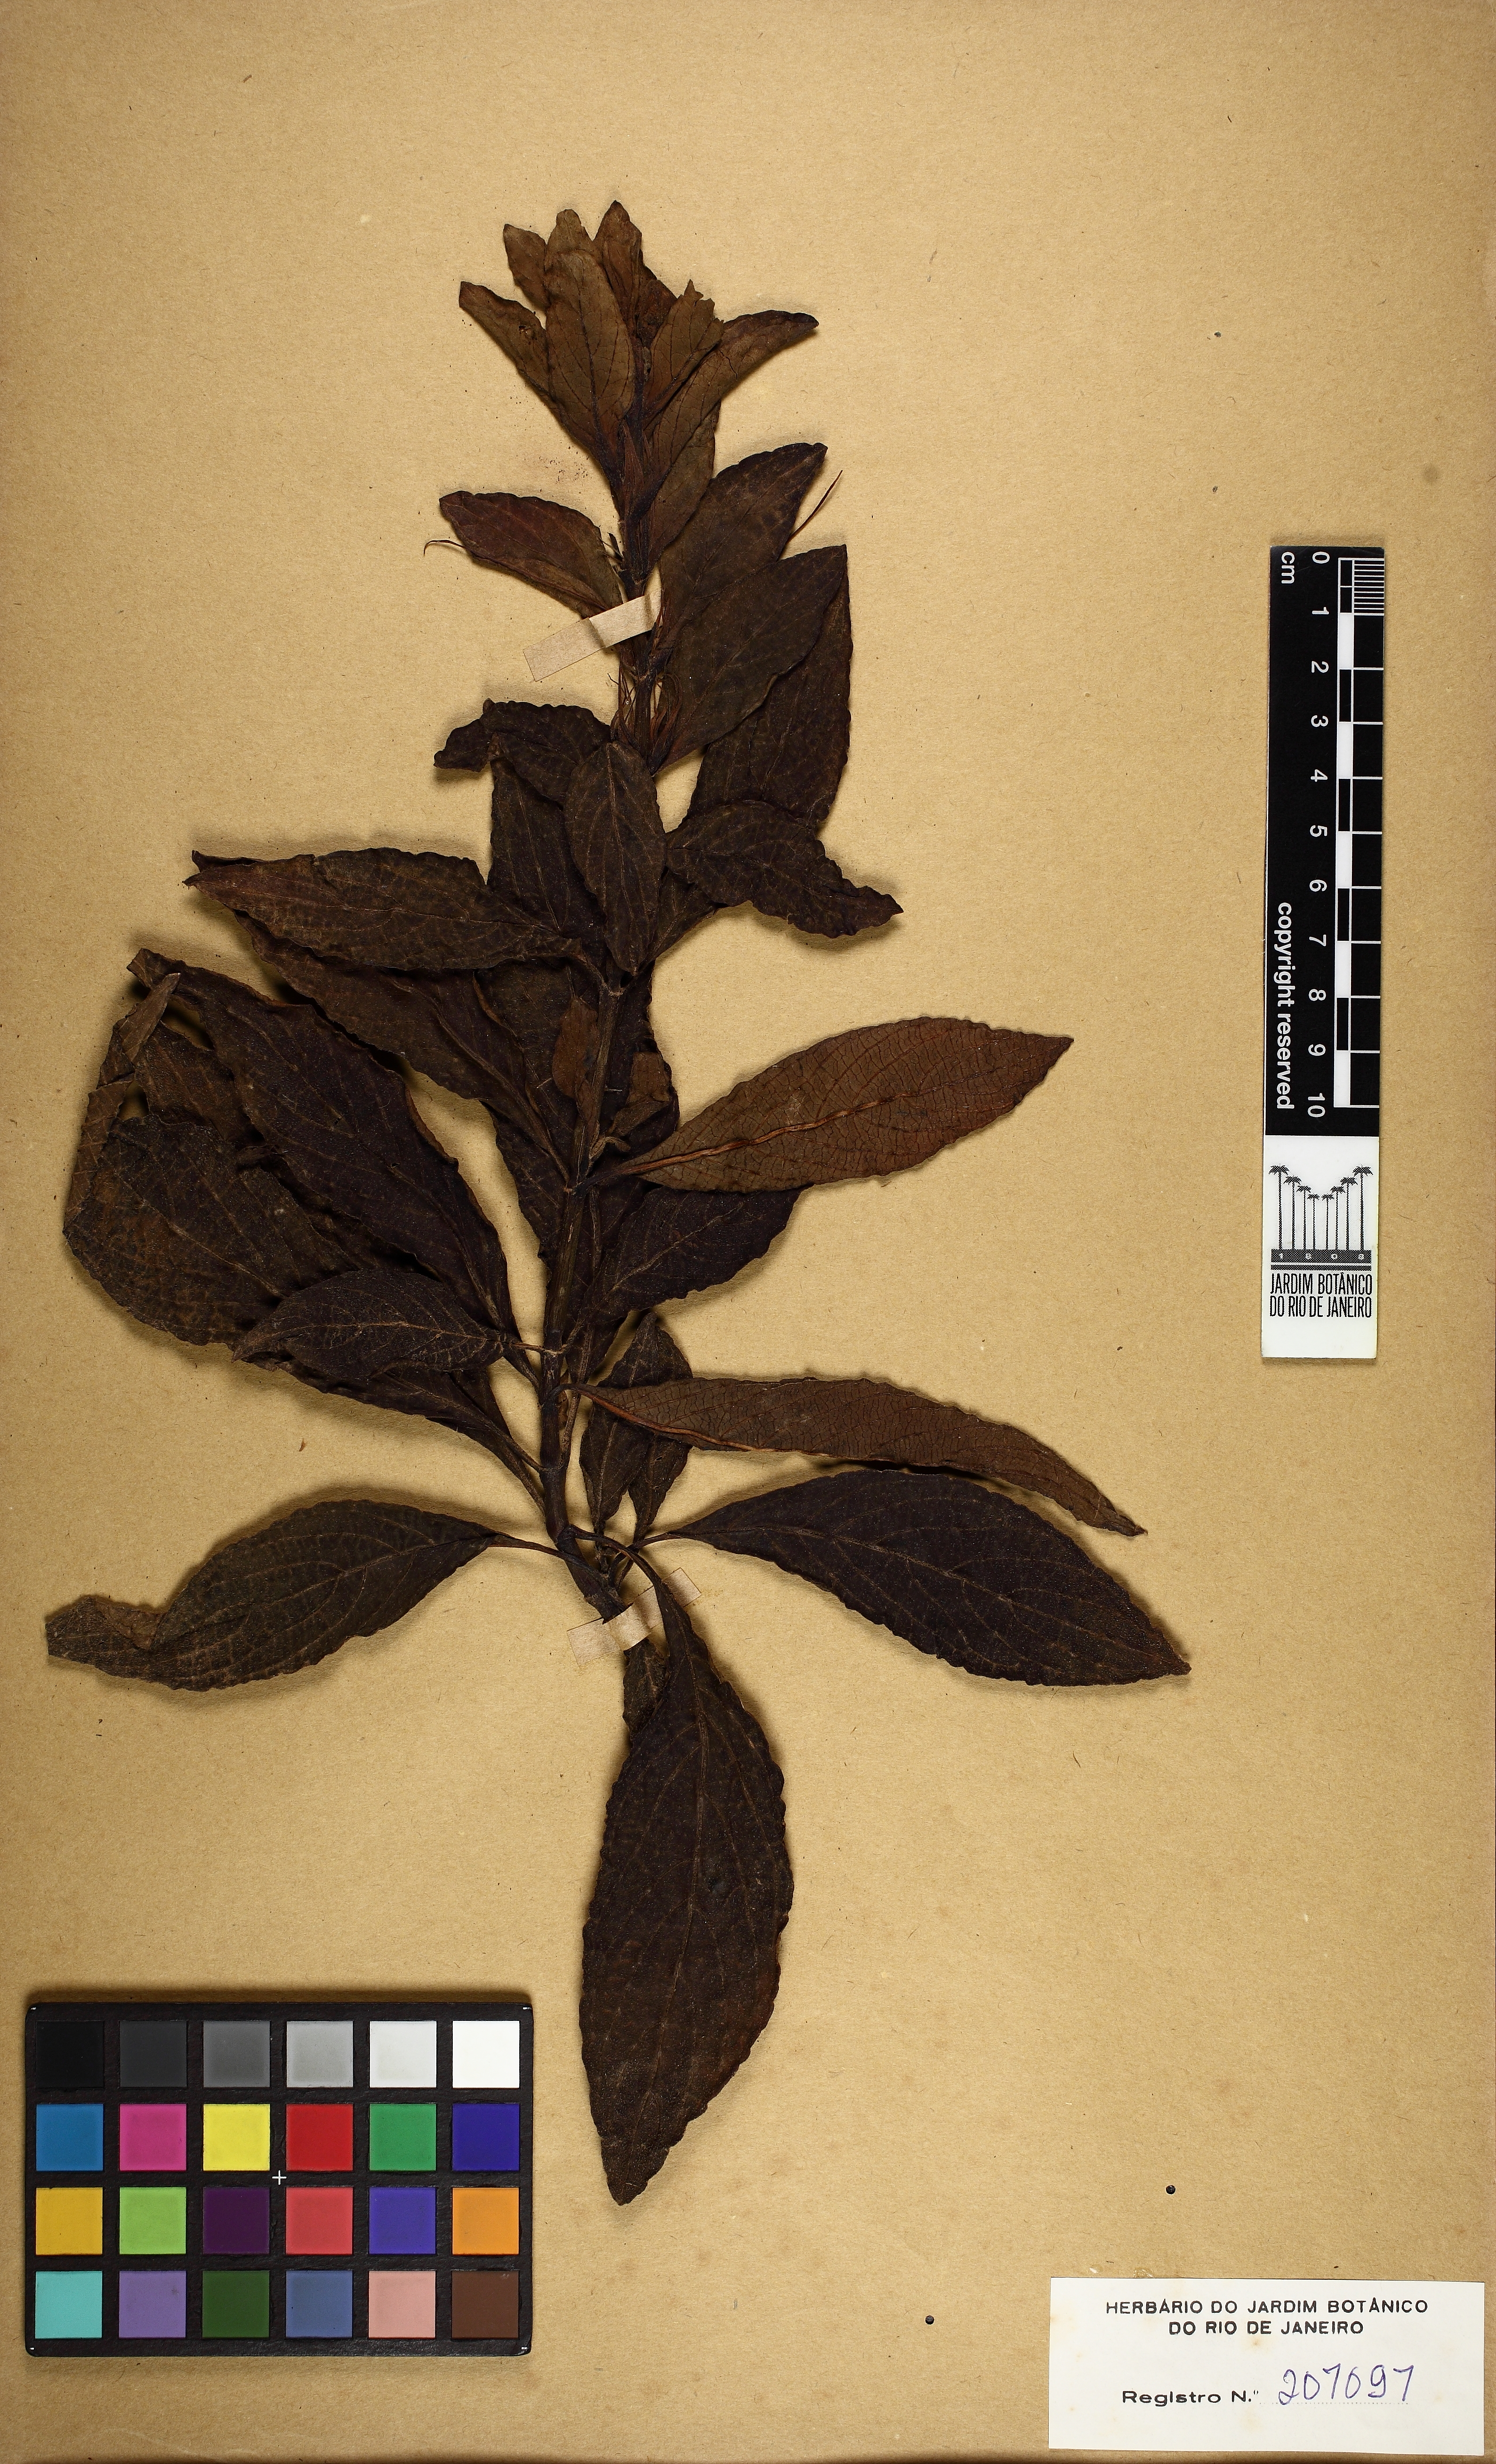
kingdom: Plantae
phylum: Tracheophyta
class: Magnoliopsida
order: Lamiales
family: Acanthaceae
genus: Ruellia
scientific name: Ruellia macrantha
